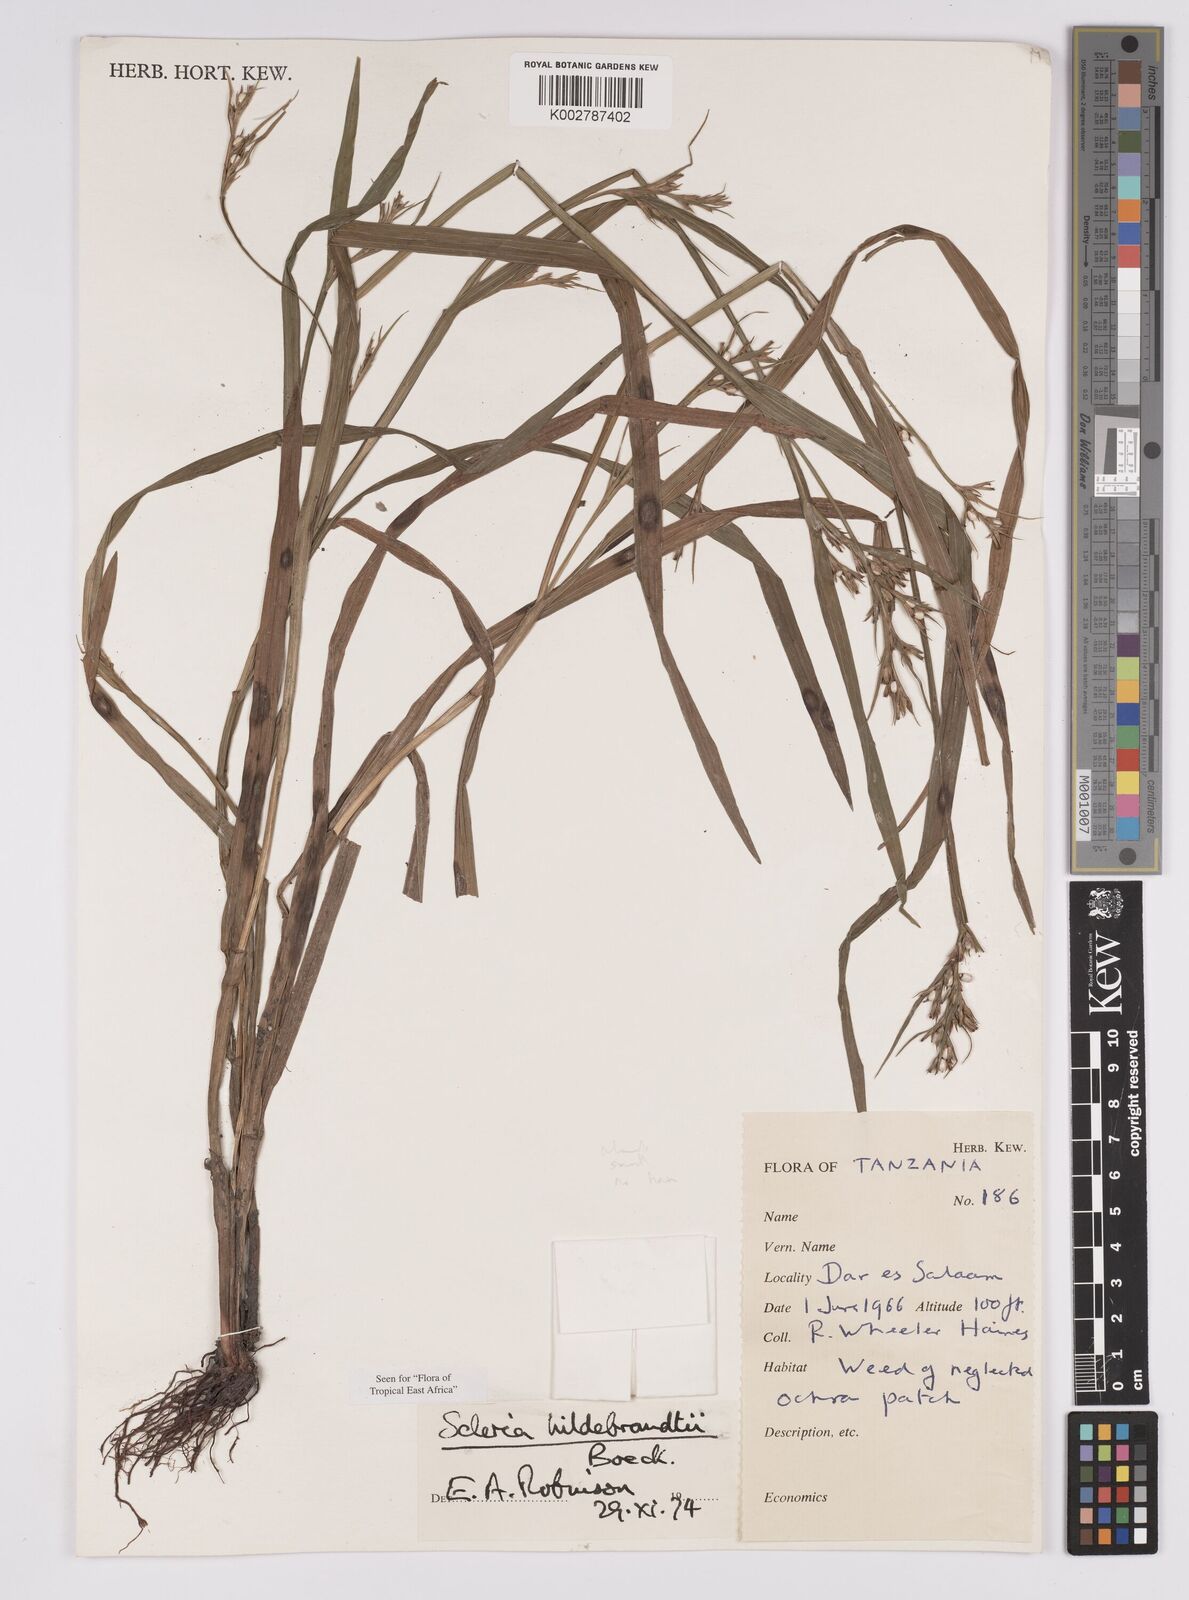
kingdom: Plantae
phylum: Tracheophyta
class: Liliopsida
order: Poales
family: Cyperaceae
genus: Scleria
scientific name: Scleria hildebrandtii
